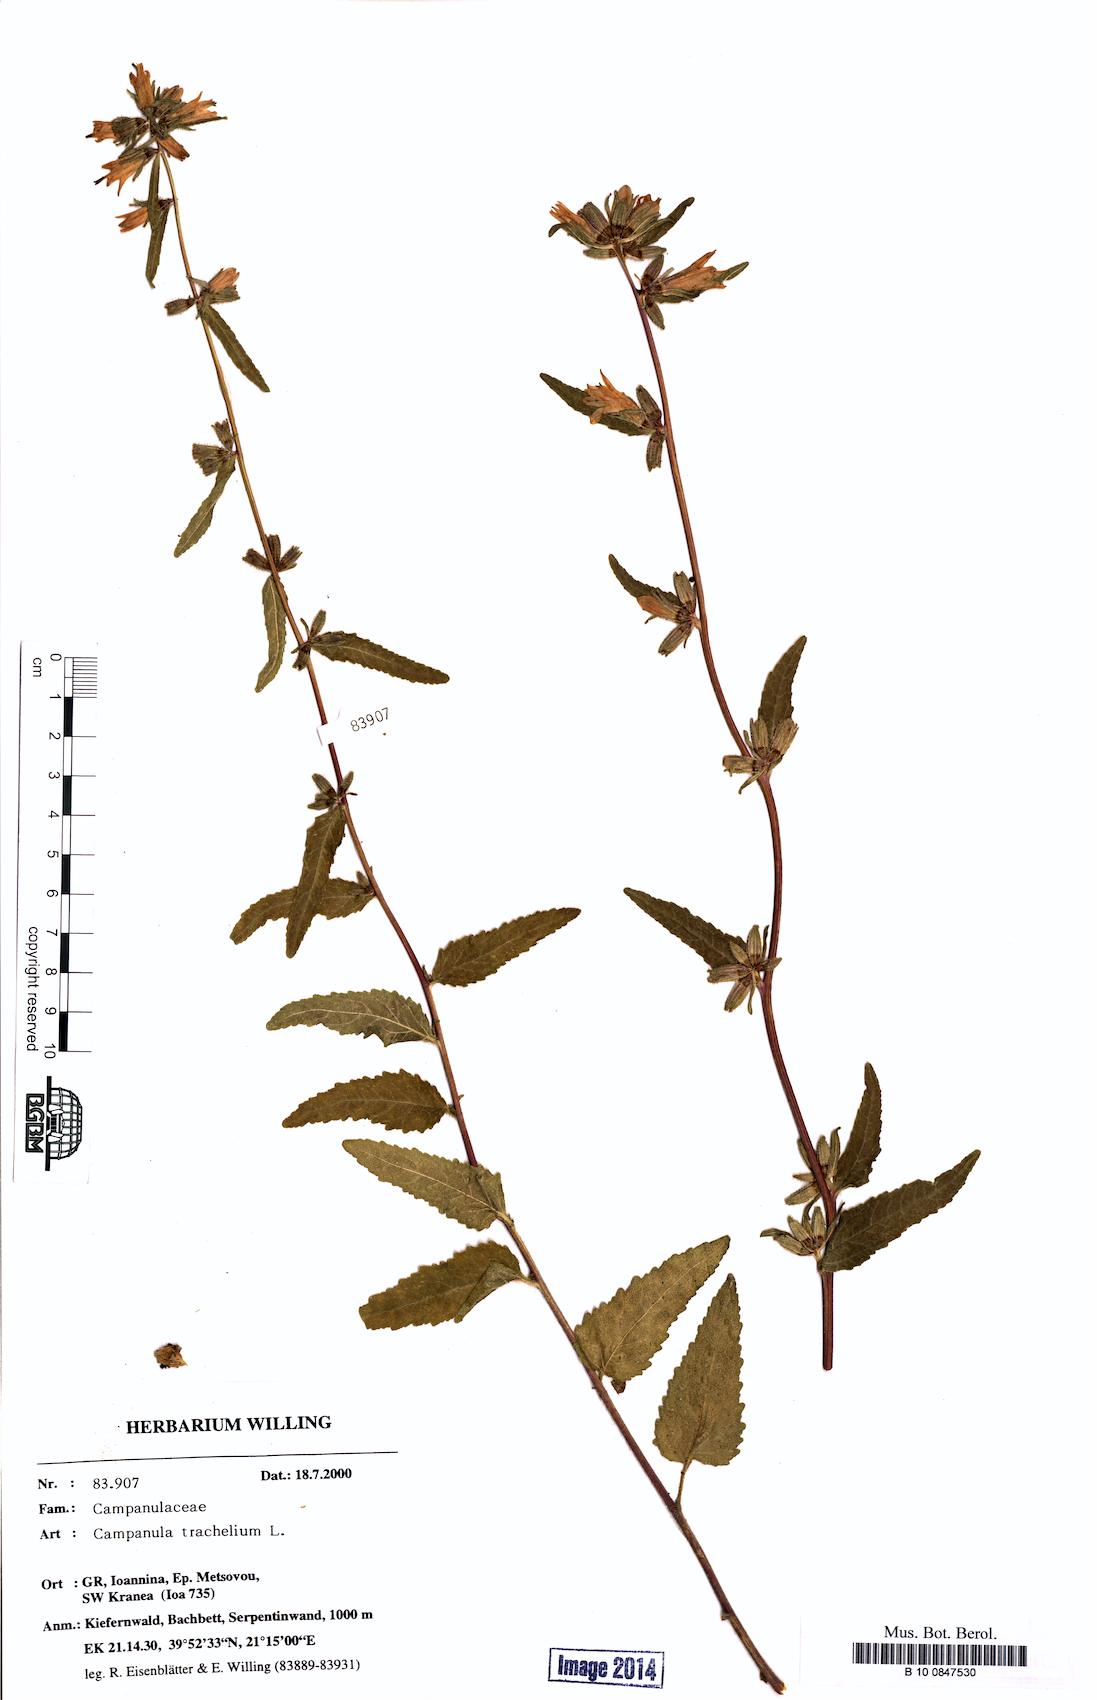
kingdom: Plantae
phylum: Tracheophyta
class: Magnoliopsida
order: Asterales
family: Campanulaceae
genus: Campanula
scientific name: Campanula trachelium
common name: Nettle-leaved bellflower
